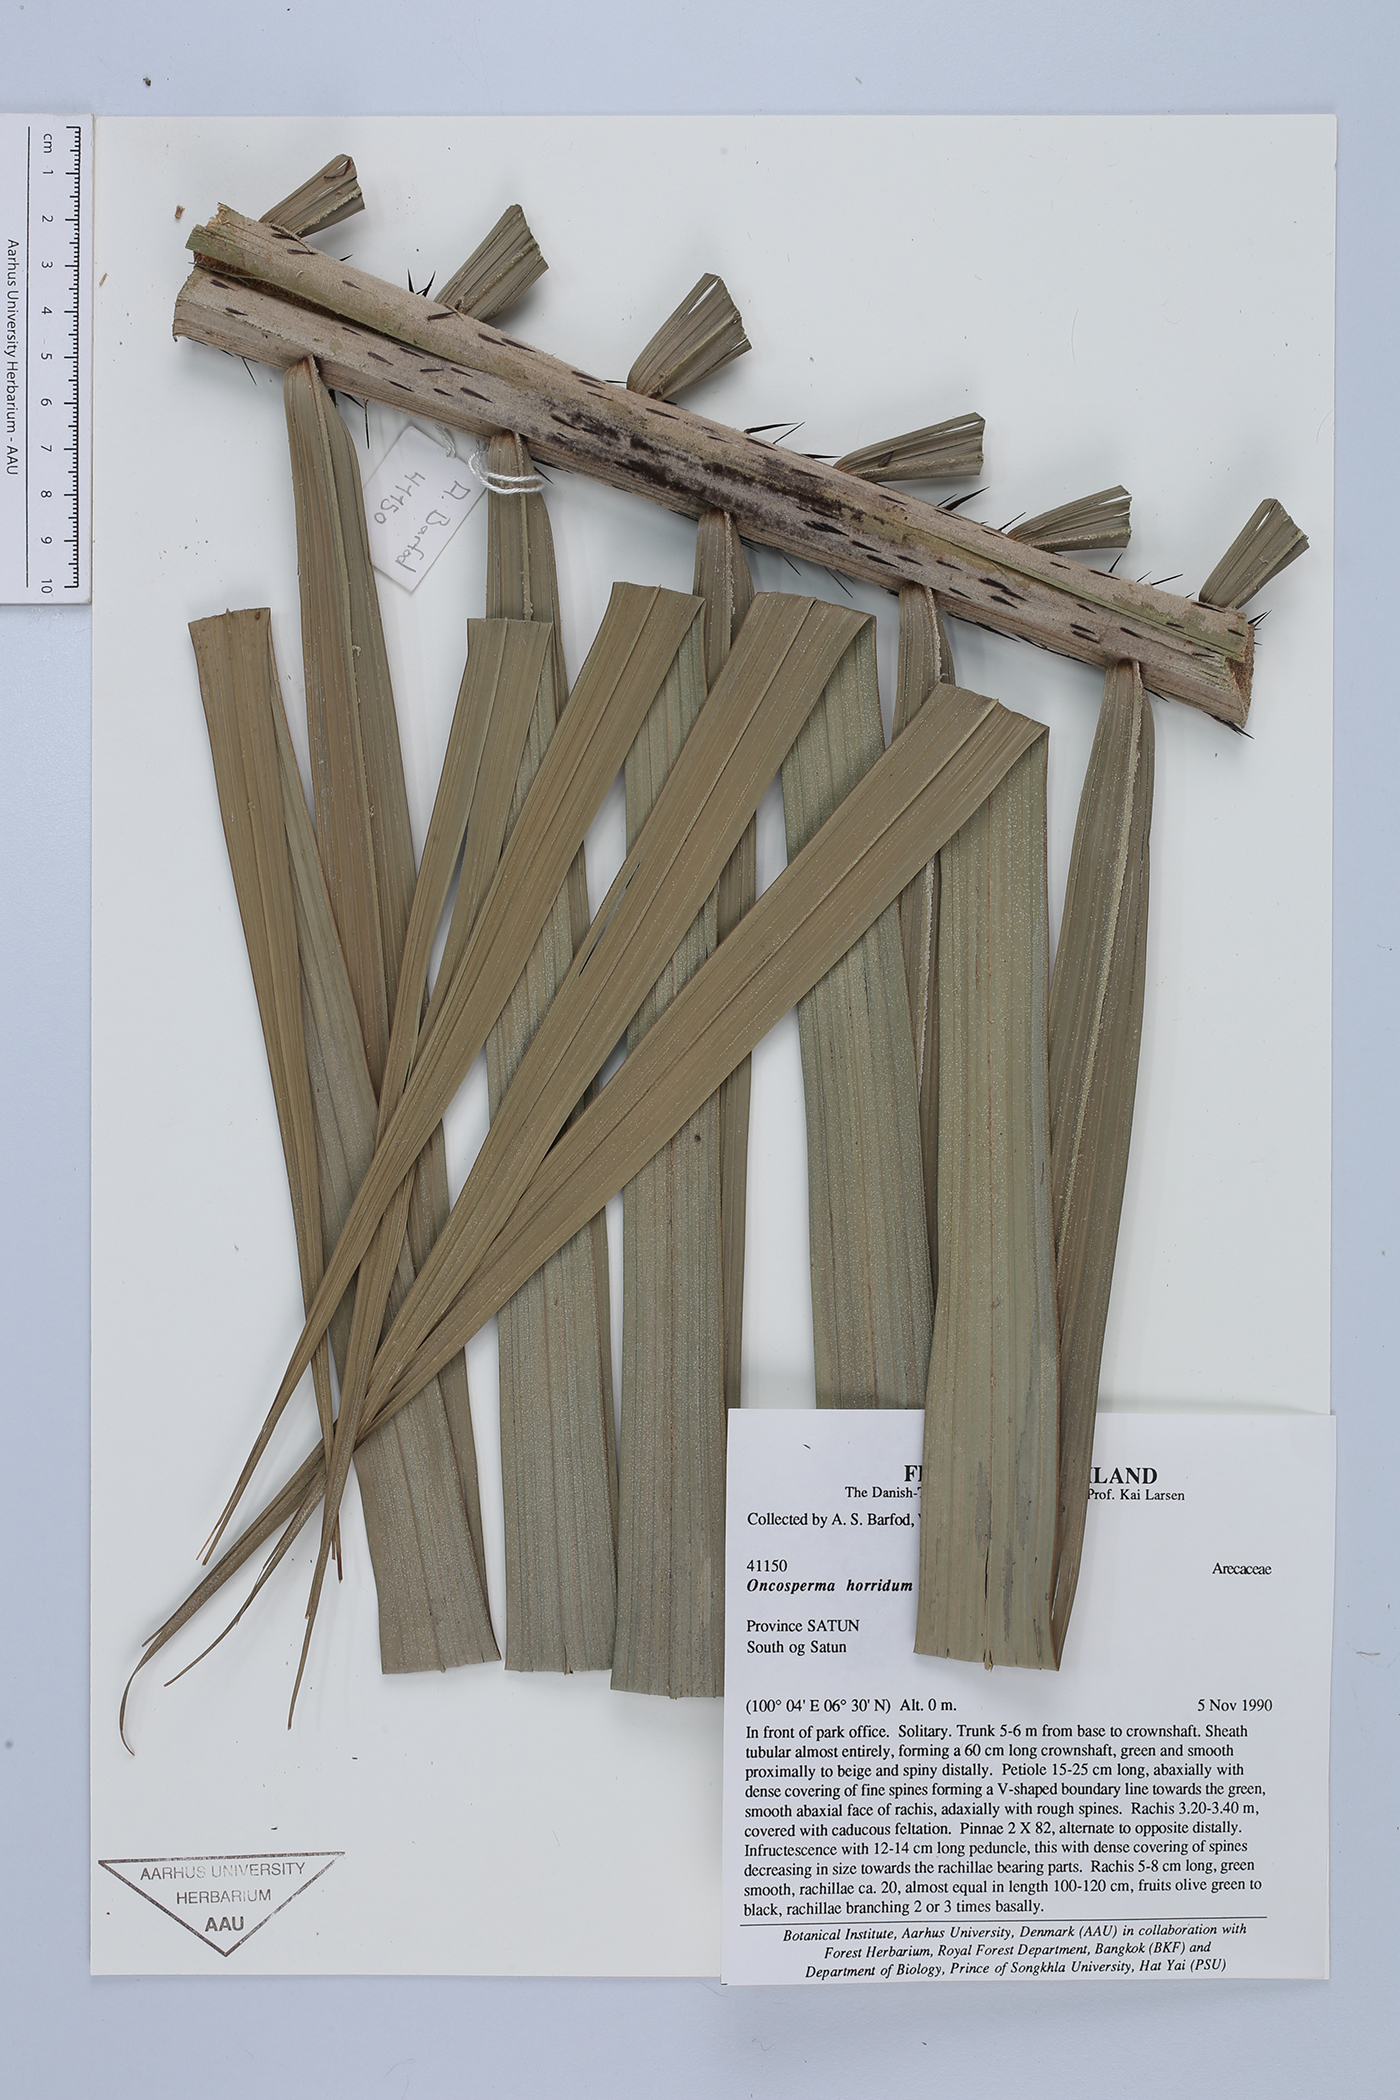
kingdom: Plantae
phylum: Tracheophyta
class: Liliopsida
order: Arecales
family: Arecaceae
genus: Oncosperma
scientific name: Oncosperma horridum
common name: Thorny palm
